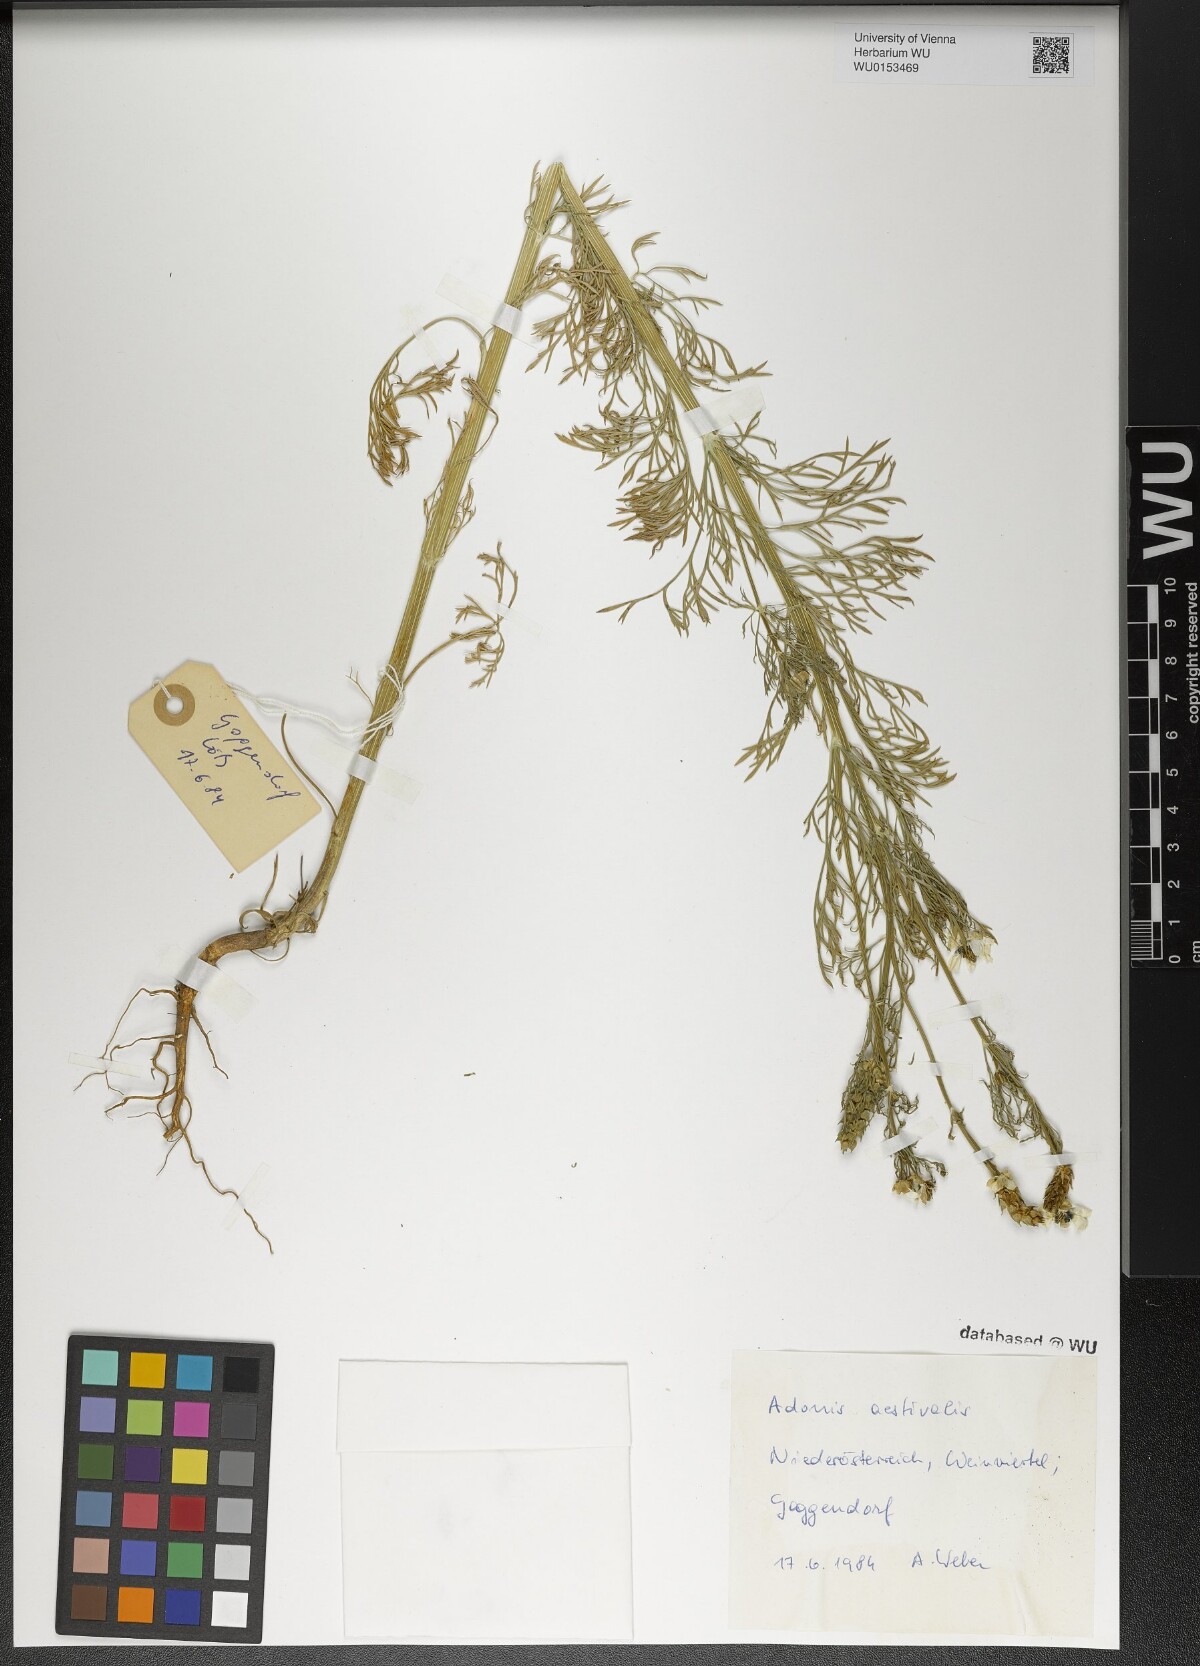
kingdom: Plantae
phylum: Tracheophyta
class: Magnoliopsida
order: Ranunculales
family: Ranunculaceae
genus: Adonis
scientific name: Adonis aestivalis
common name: Summer pheasant's-eye
